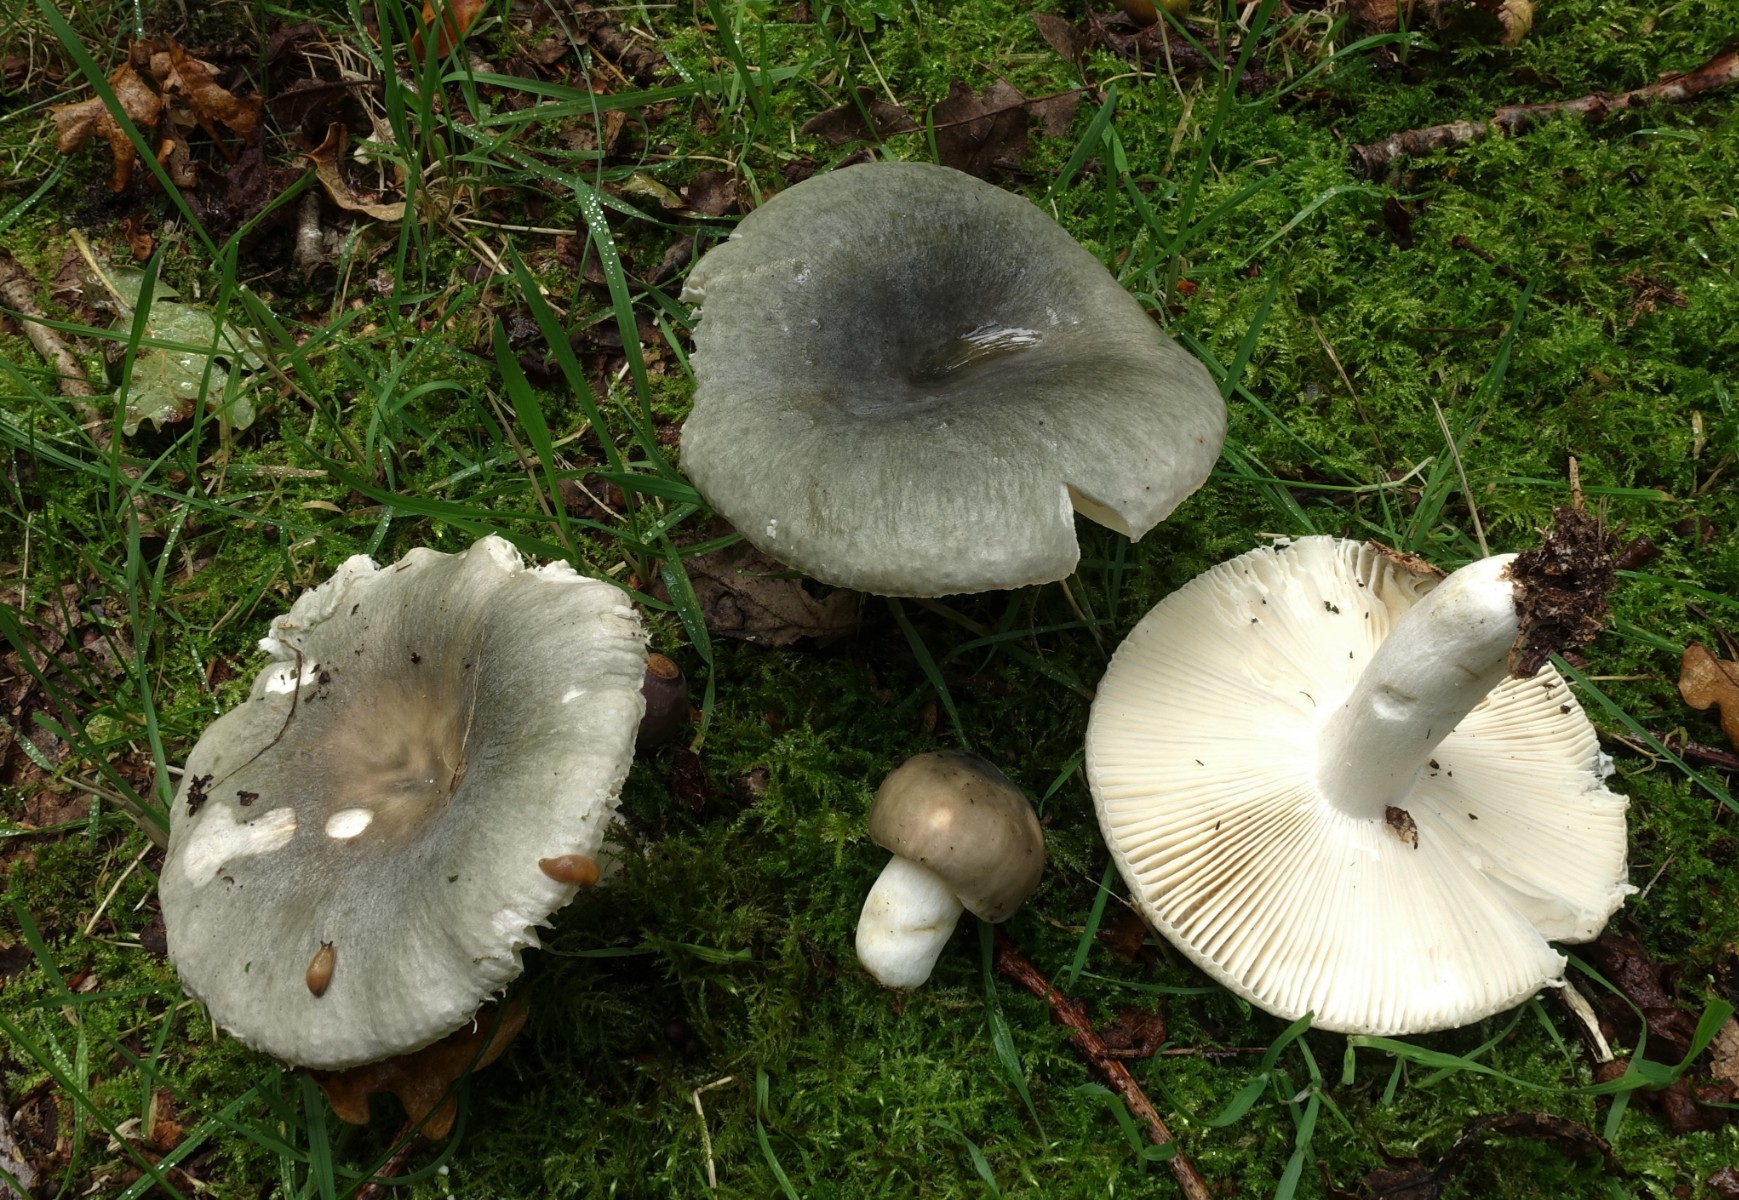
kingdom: Fungi
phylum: Basidiomycota
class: Agaricomycetes
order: Russulales
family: Russulaceae
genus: Russula
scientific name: Russula parazurea
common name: blågrå skørhat
